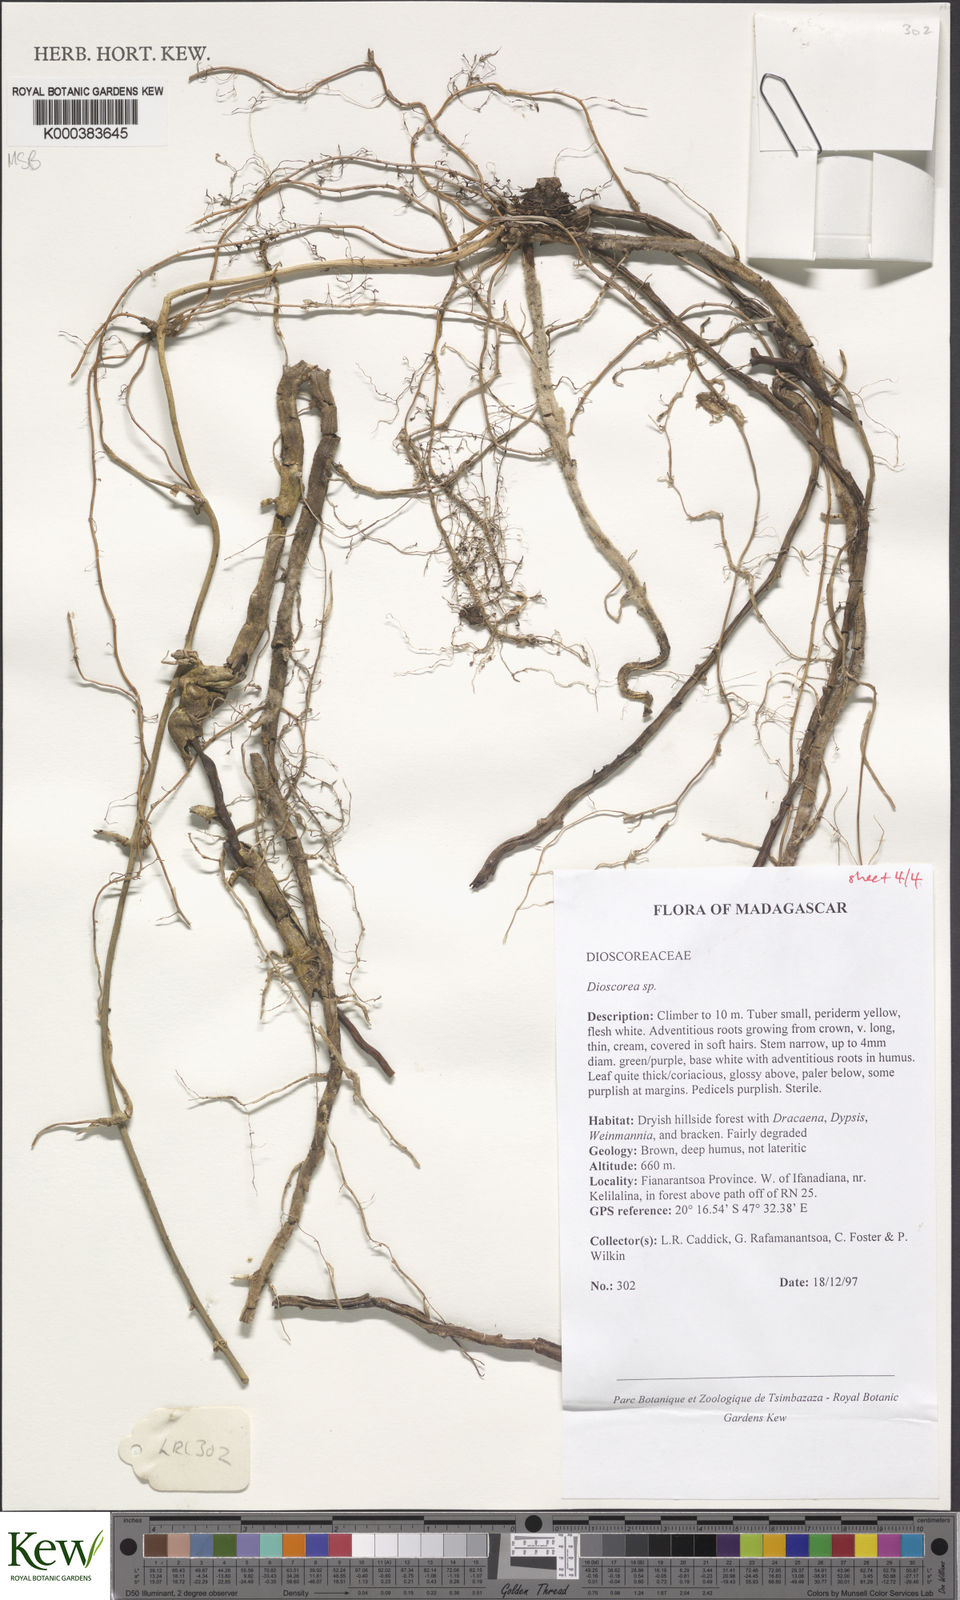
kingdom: Plantae
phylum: Tracheophyta
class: Liliopsida
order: Dioscoreales
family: Dioscoreaceae
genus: Dioscorea
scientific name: Dioscorea arcuatinervis
